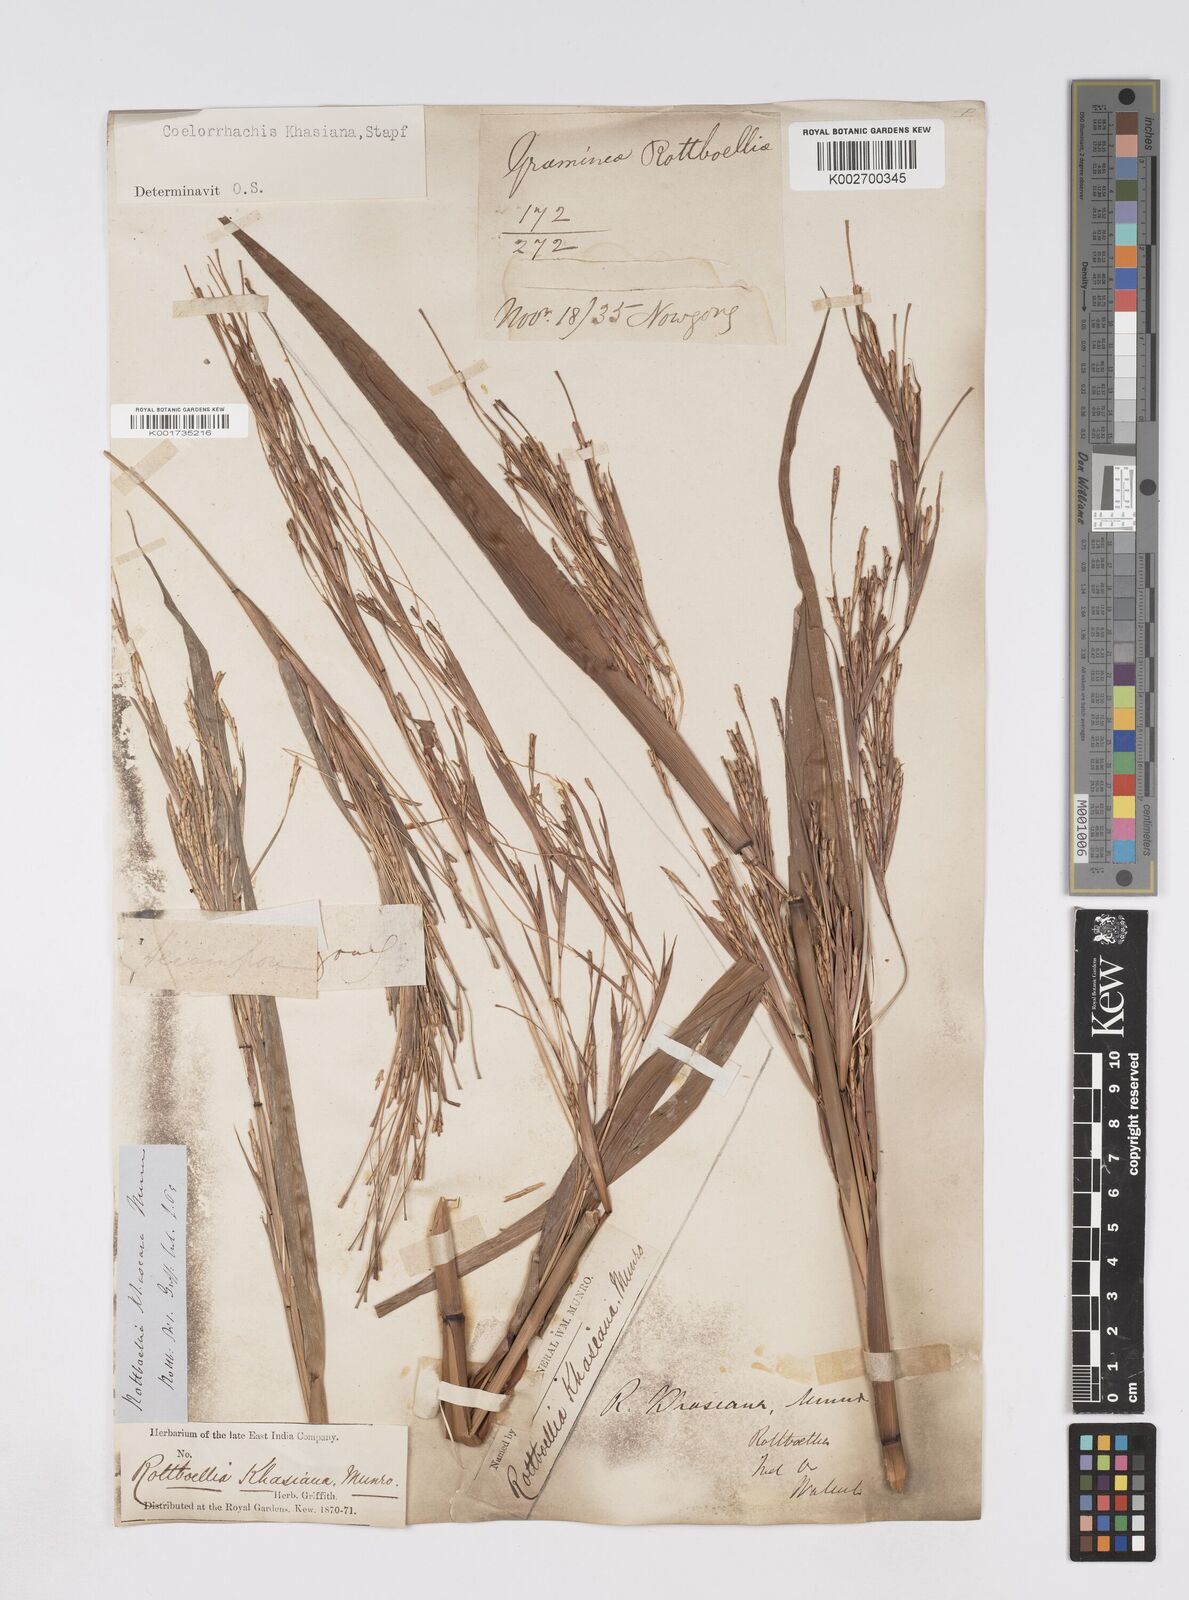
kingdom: Plantae
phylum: Tracheophyta
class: Liliopsida
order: Poales
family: Poaceae
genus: Rottboellia
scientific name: Rottboellia striata
